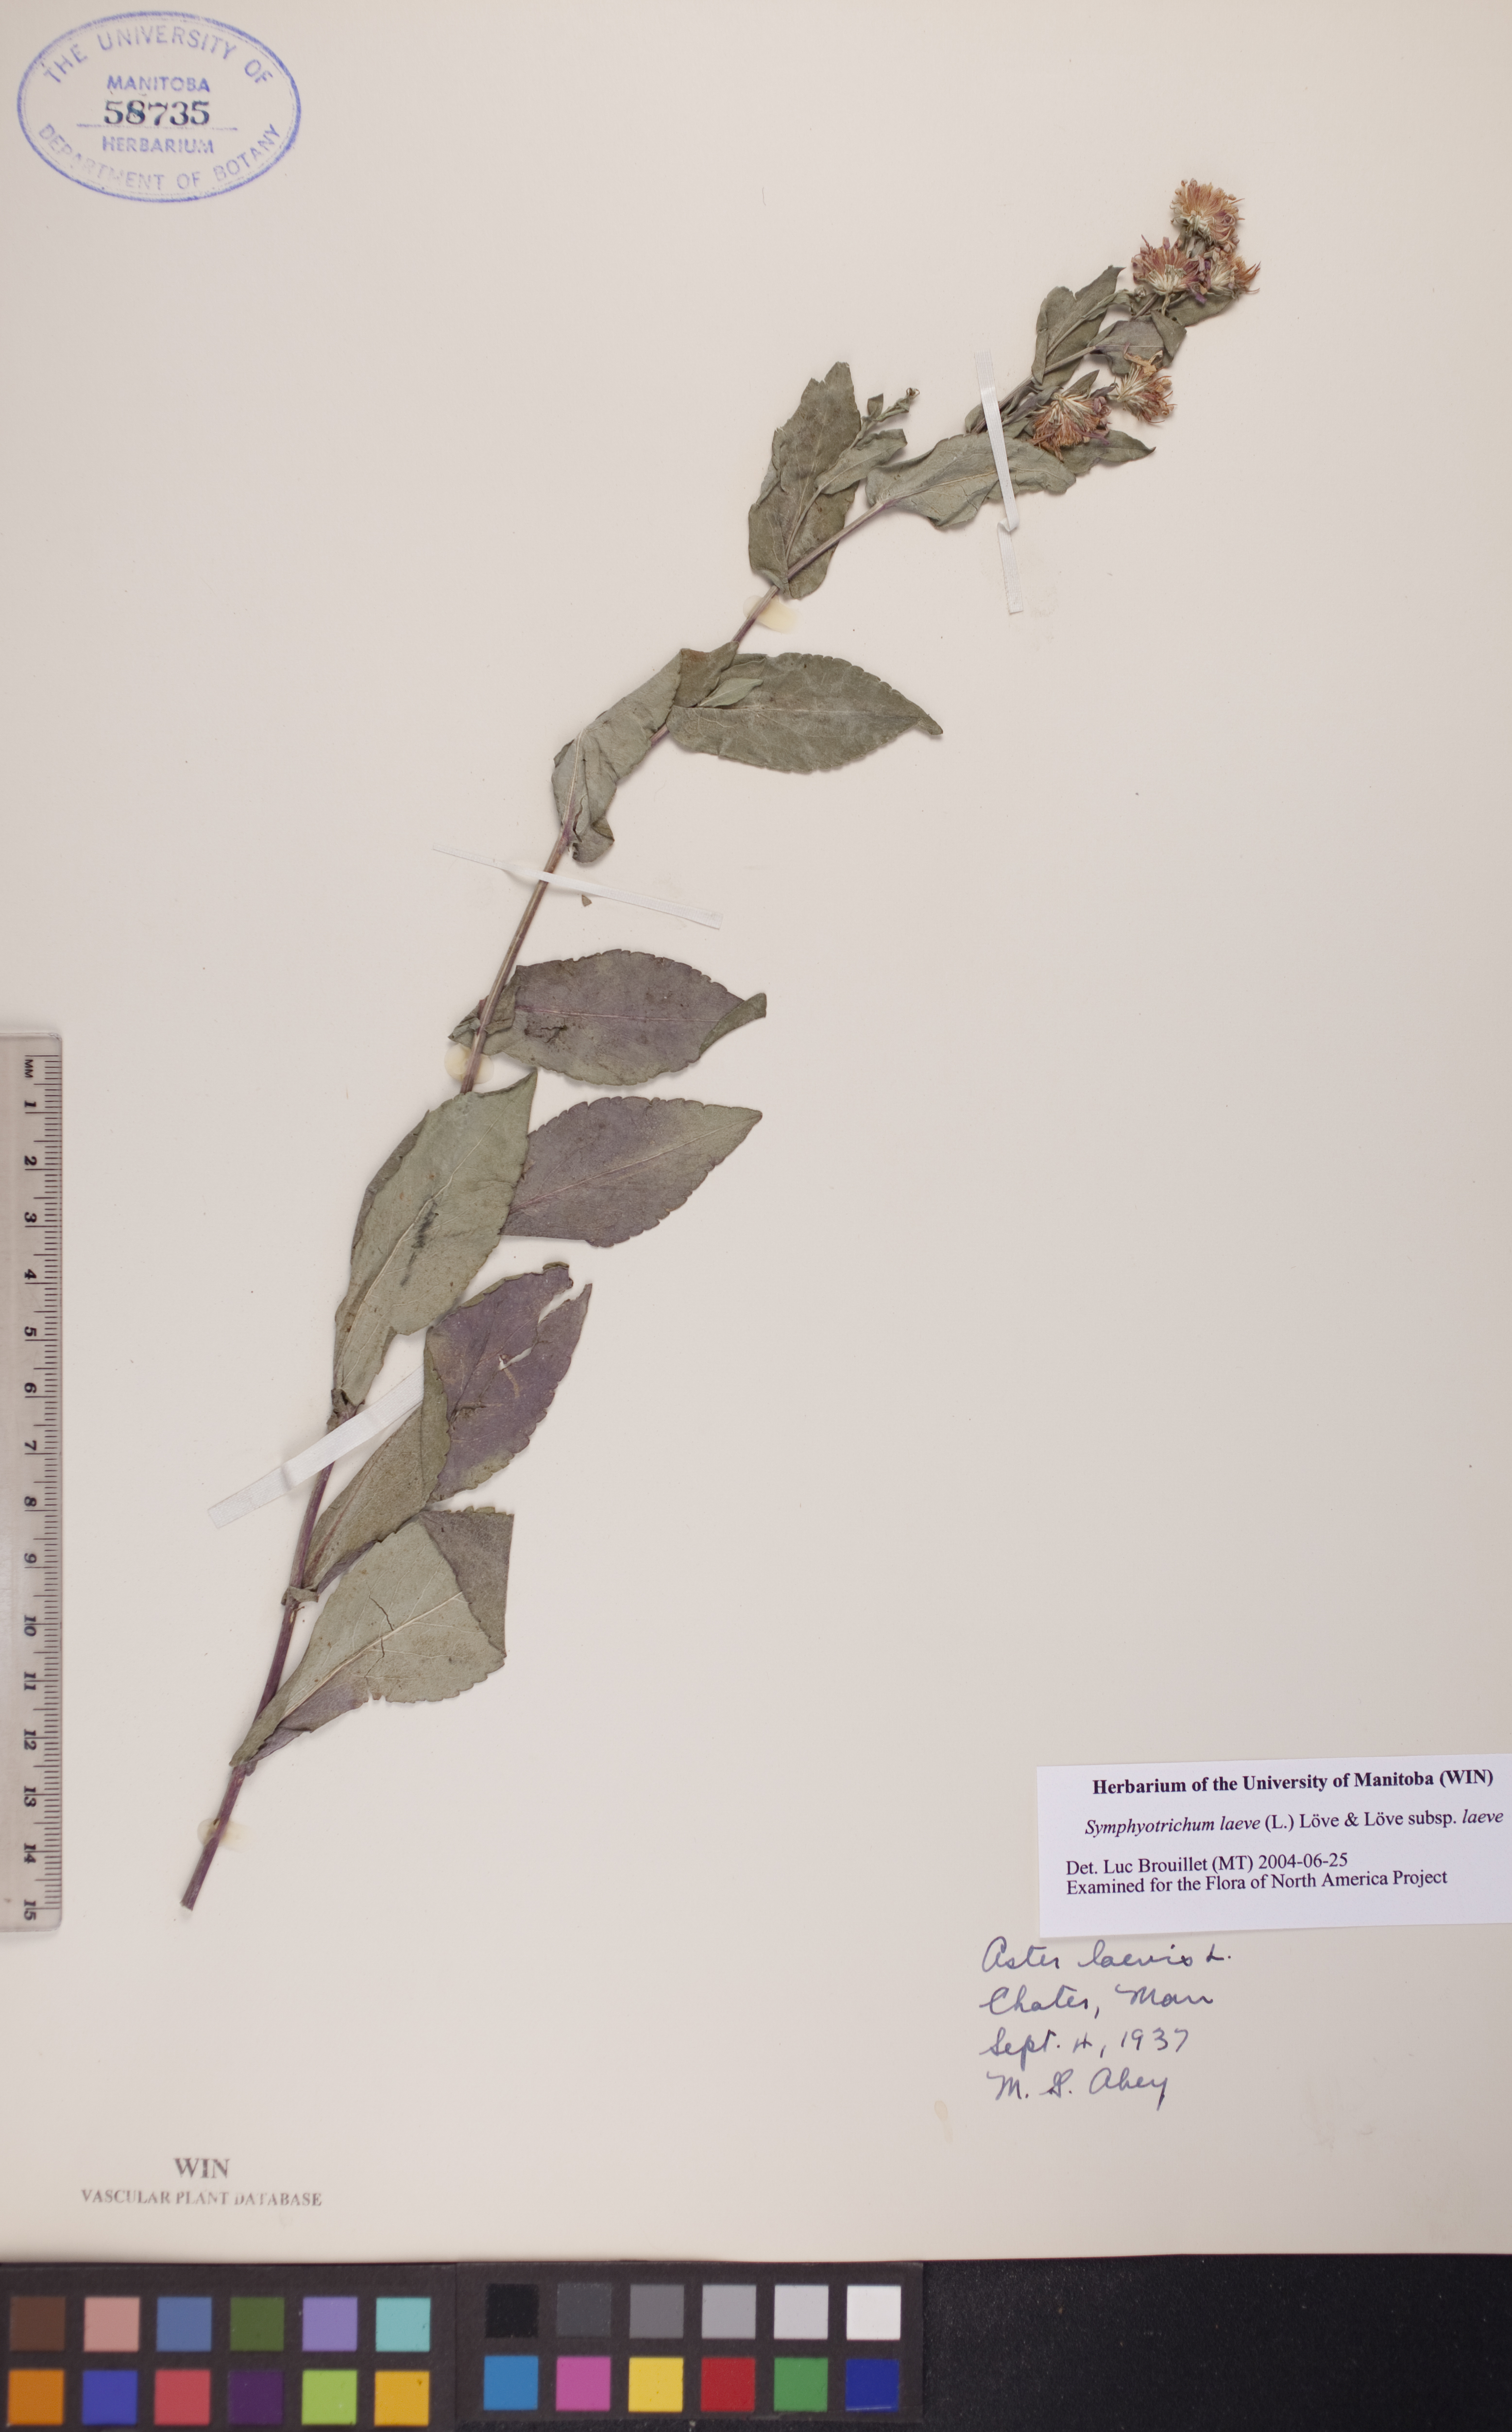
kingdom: Plantae
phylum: Tracheophyta
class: Magnoliopsida
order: Asterales
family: Asteraceae
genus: Symphyotrichum
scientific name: Symphyotrichum laeve
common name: Glaucous aster
